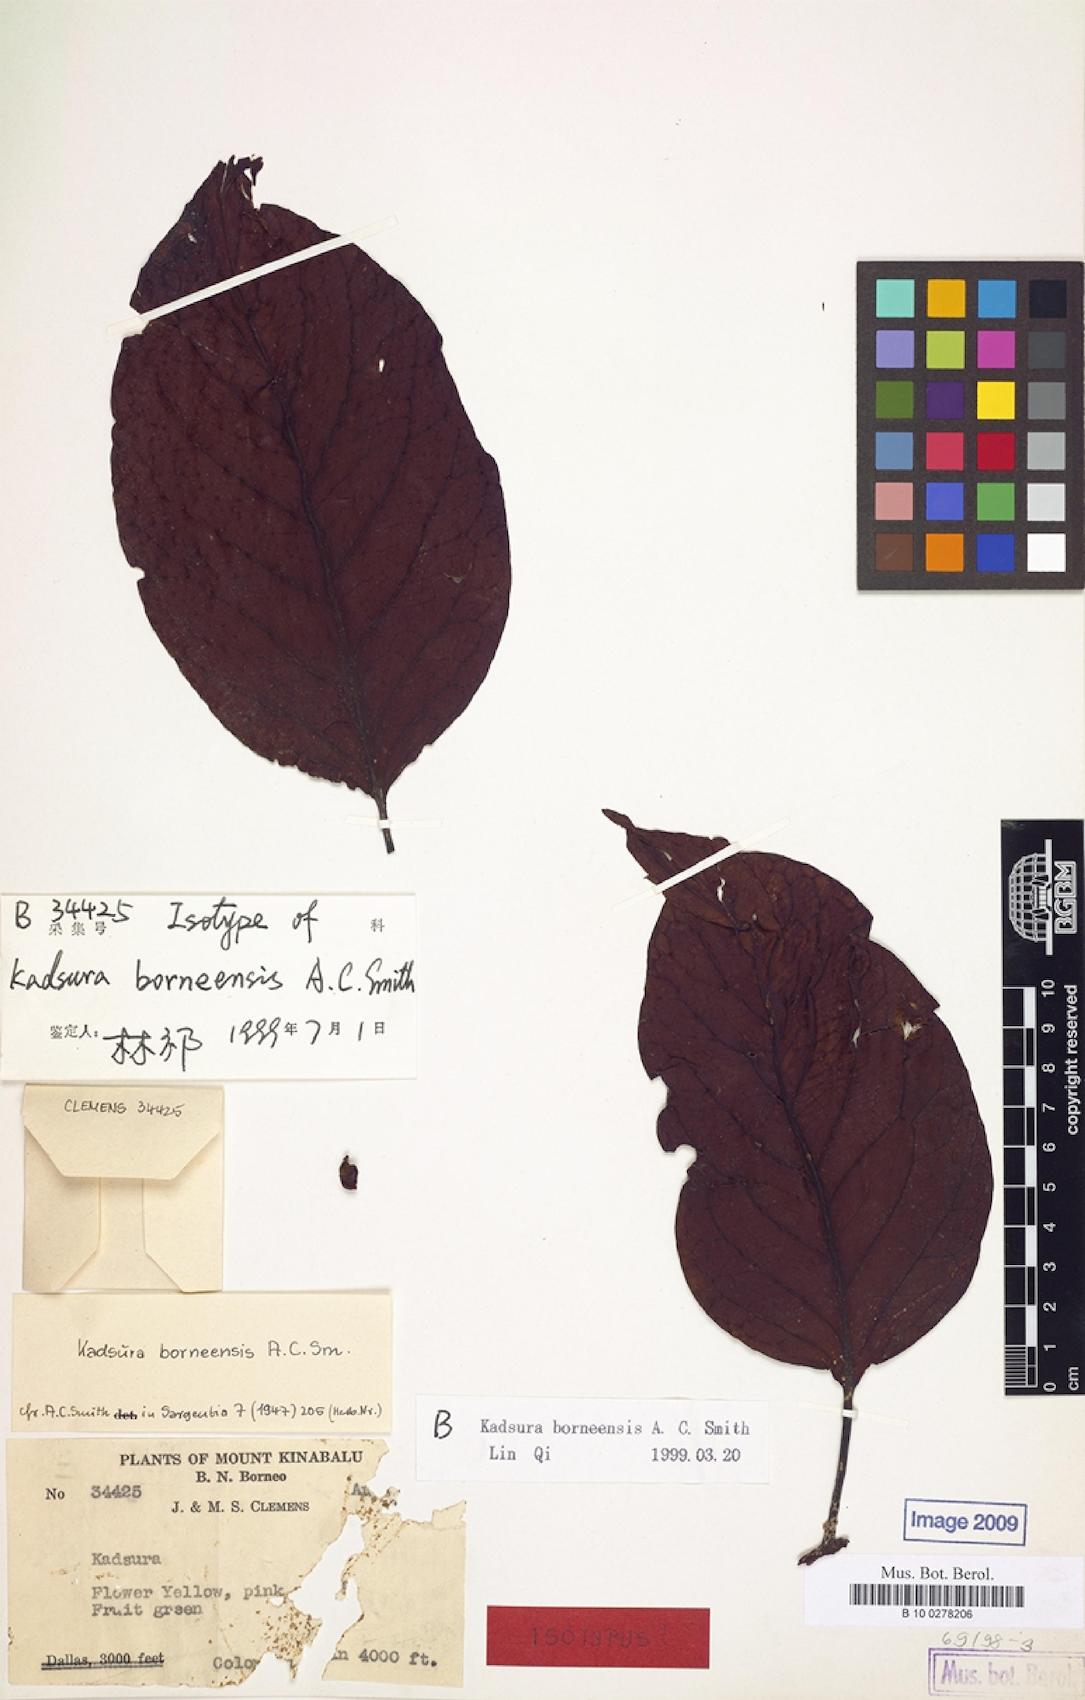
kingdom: Plantae
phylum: Tracheophyta
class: Magnoliopsida
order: Austrobaileyales
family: Schisandraceae
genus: Kadsura
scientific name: Kadsura borneensis
